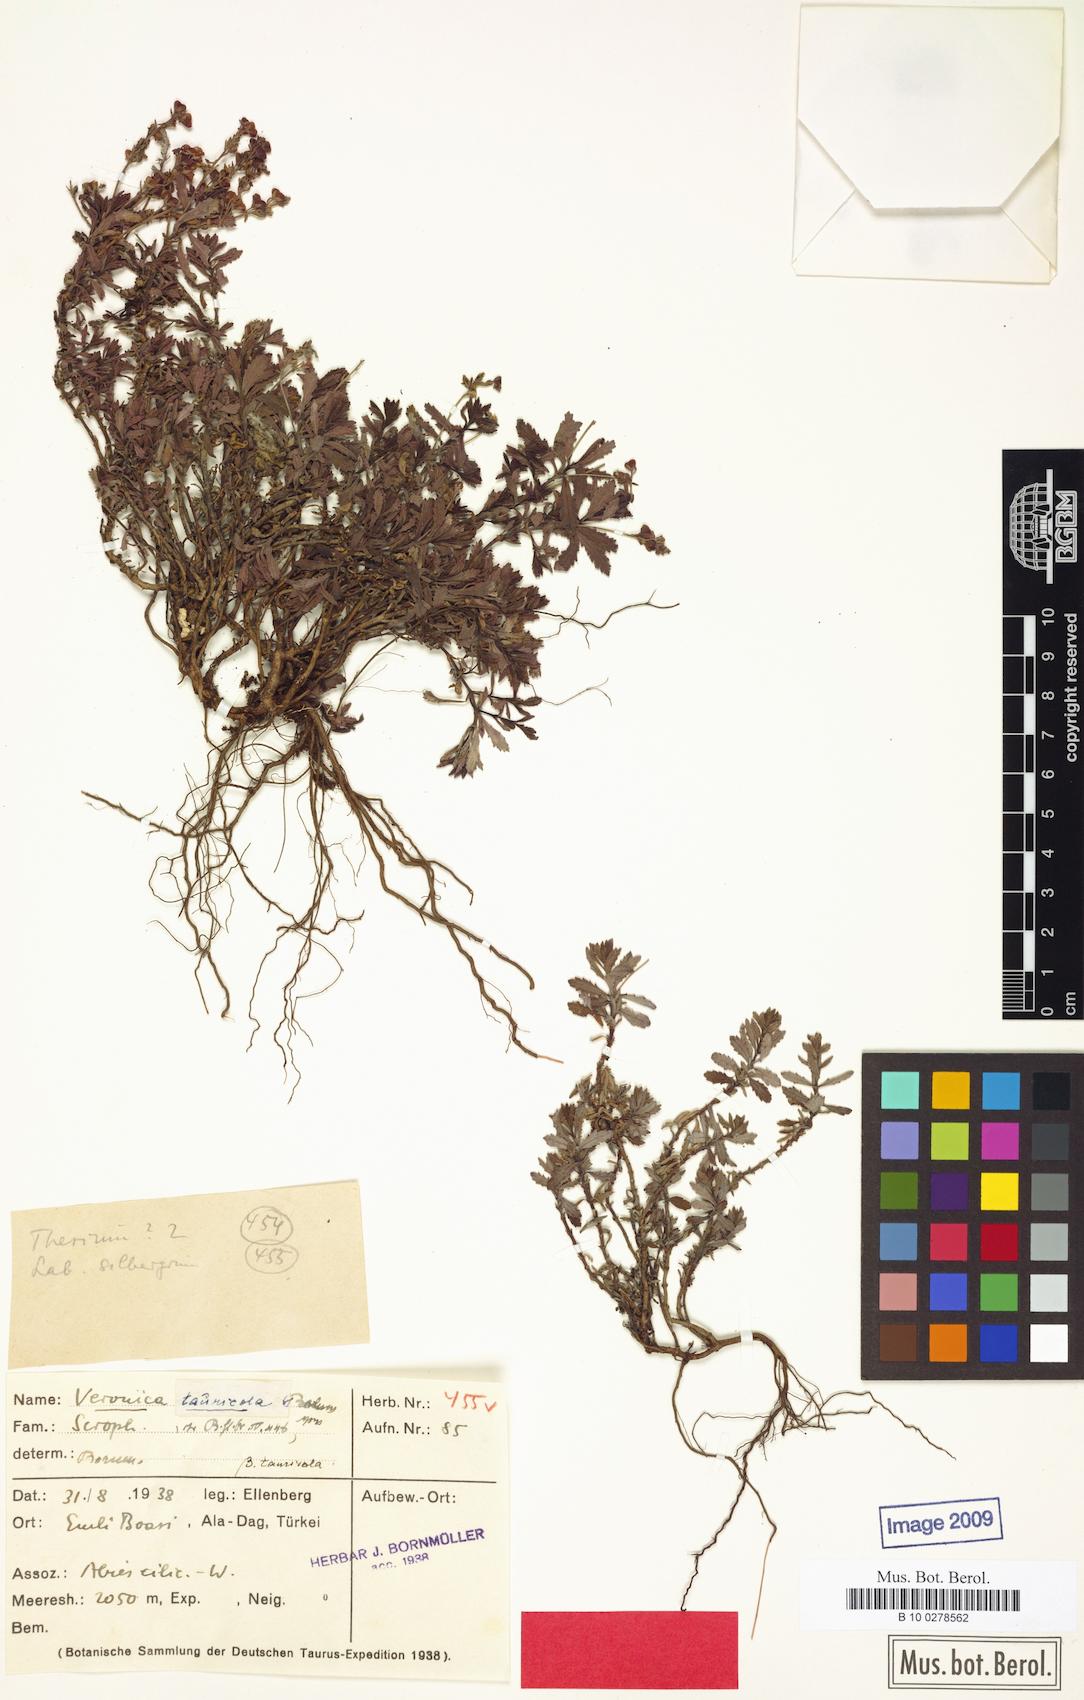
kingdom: Plantae
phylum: Tracheophyta
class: Magnoliopsida
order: Lamiales
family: Plantaginaceae
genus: Veronica
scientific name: Veronica tauricola
